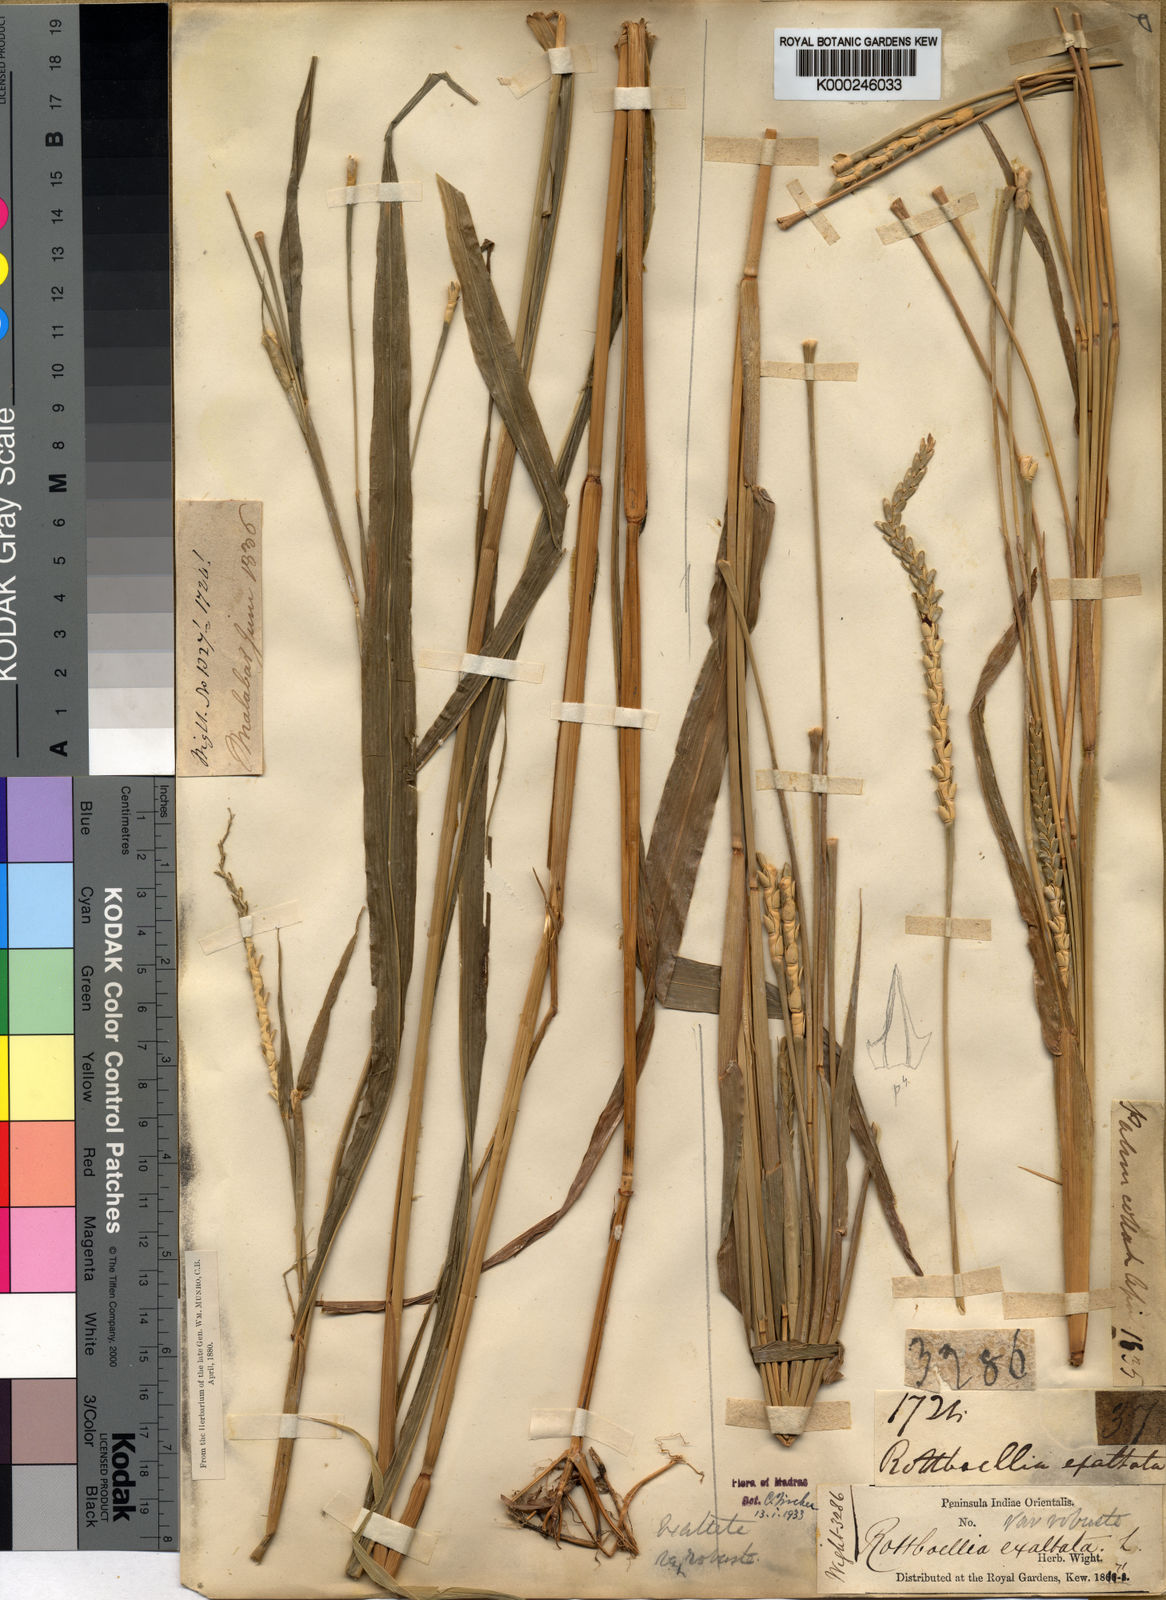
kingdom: Plantae
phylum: Tracheophyta
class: Liliopsida
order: Poales
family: Poaceae
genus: Rottboellia
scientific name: Rottboellia cochinchinensis
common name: Itchgrass
